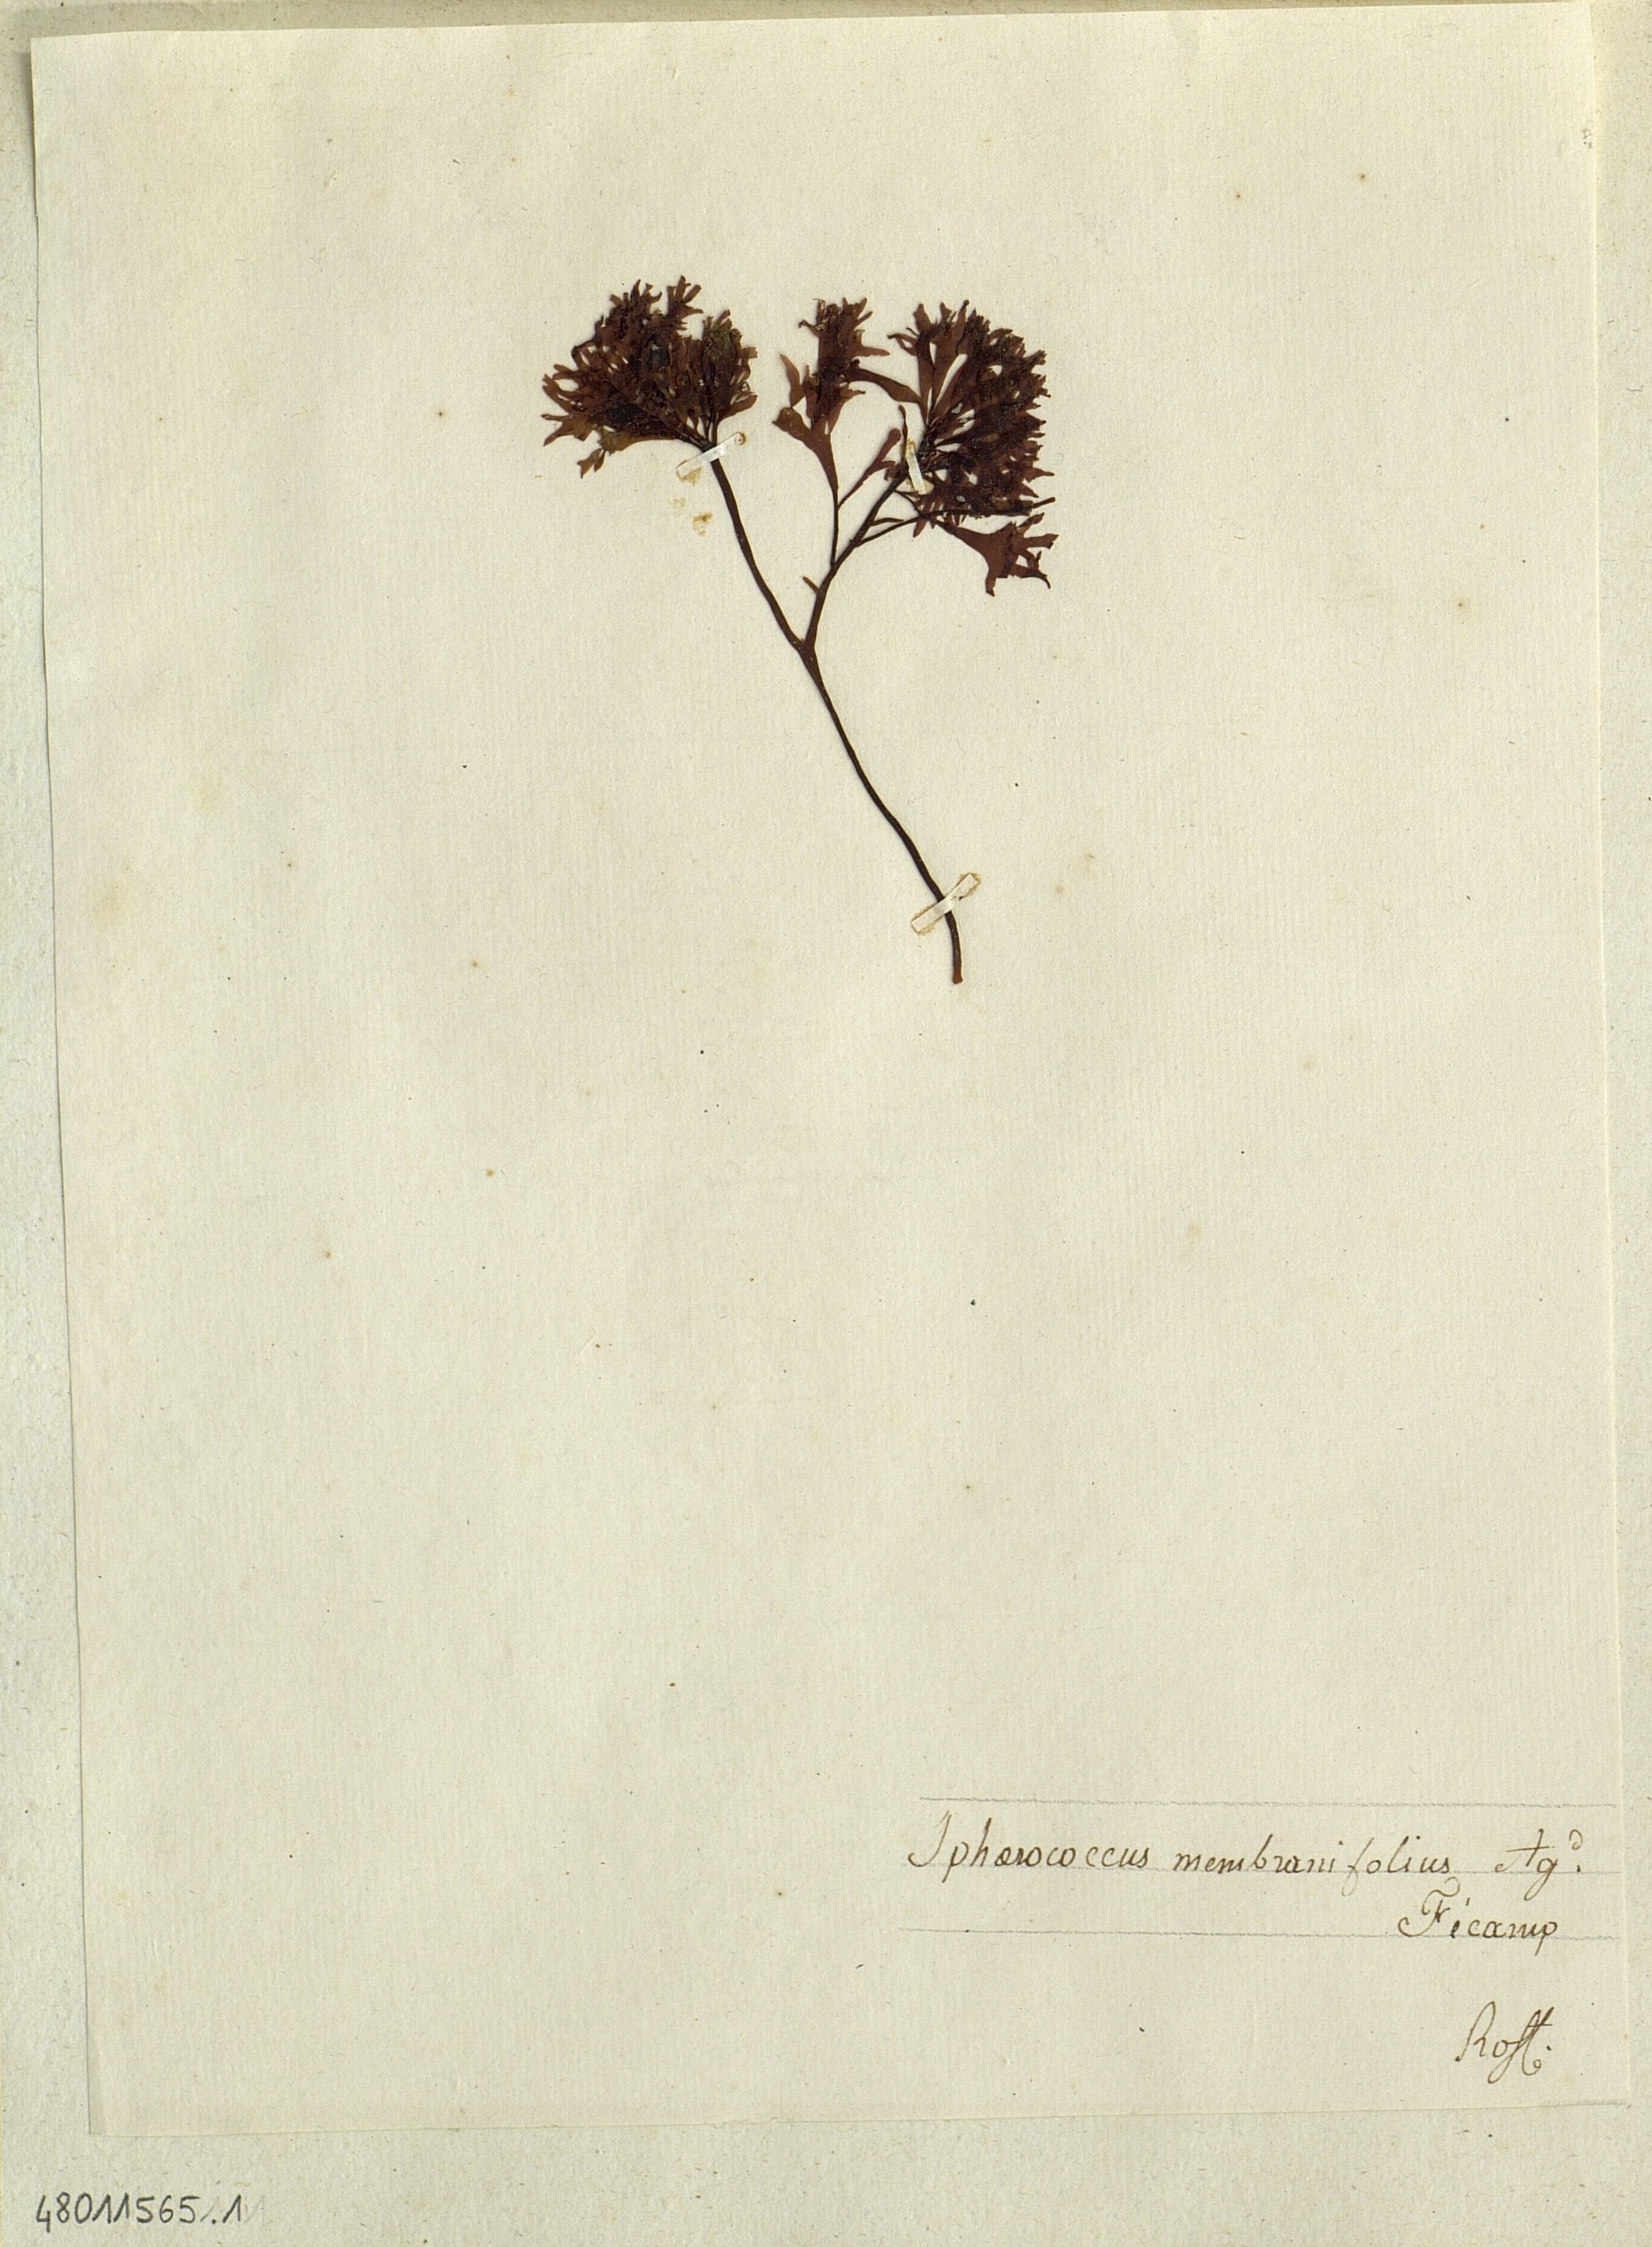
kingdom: Plantae
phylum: Rhodophyta
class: Florideophyceae
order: Gigartinales
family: Phyllophoraceae
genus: Phyllophora
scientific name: Phyllophora pseudoceranoides
